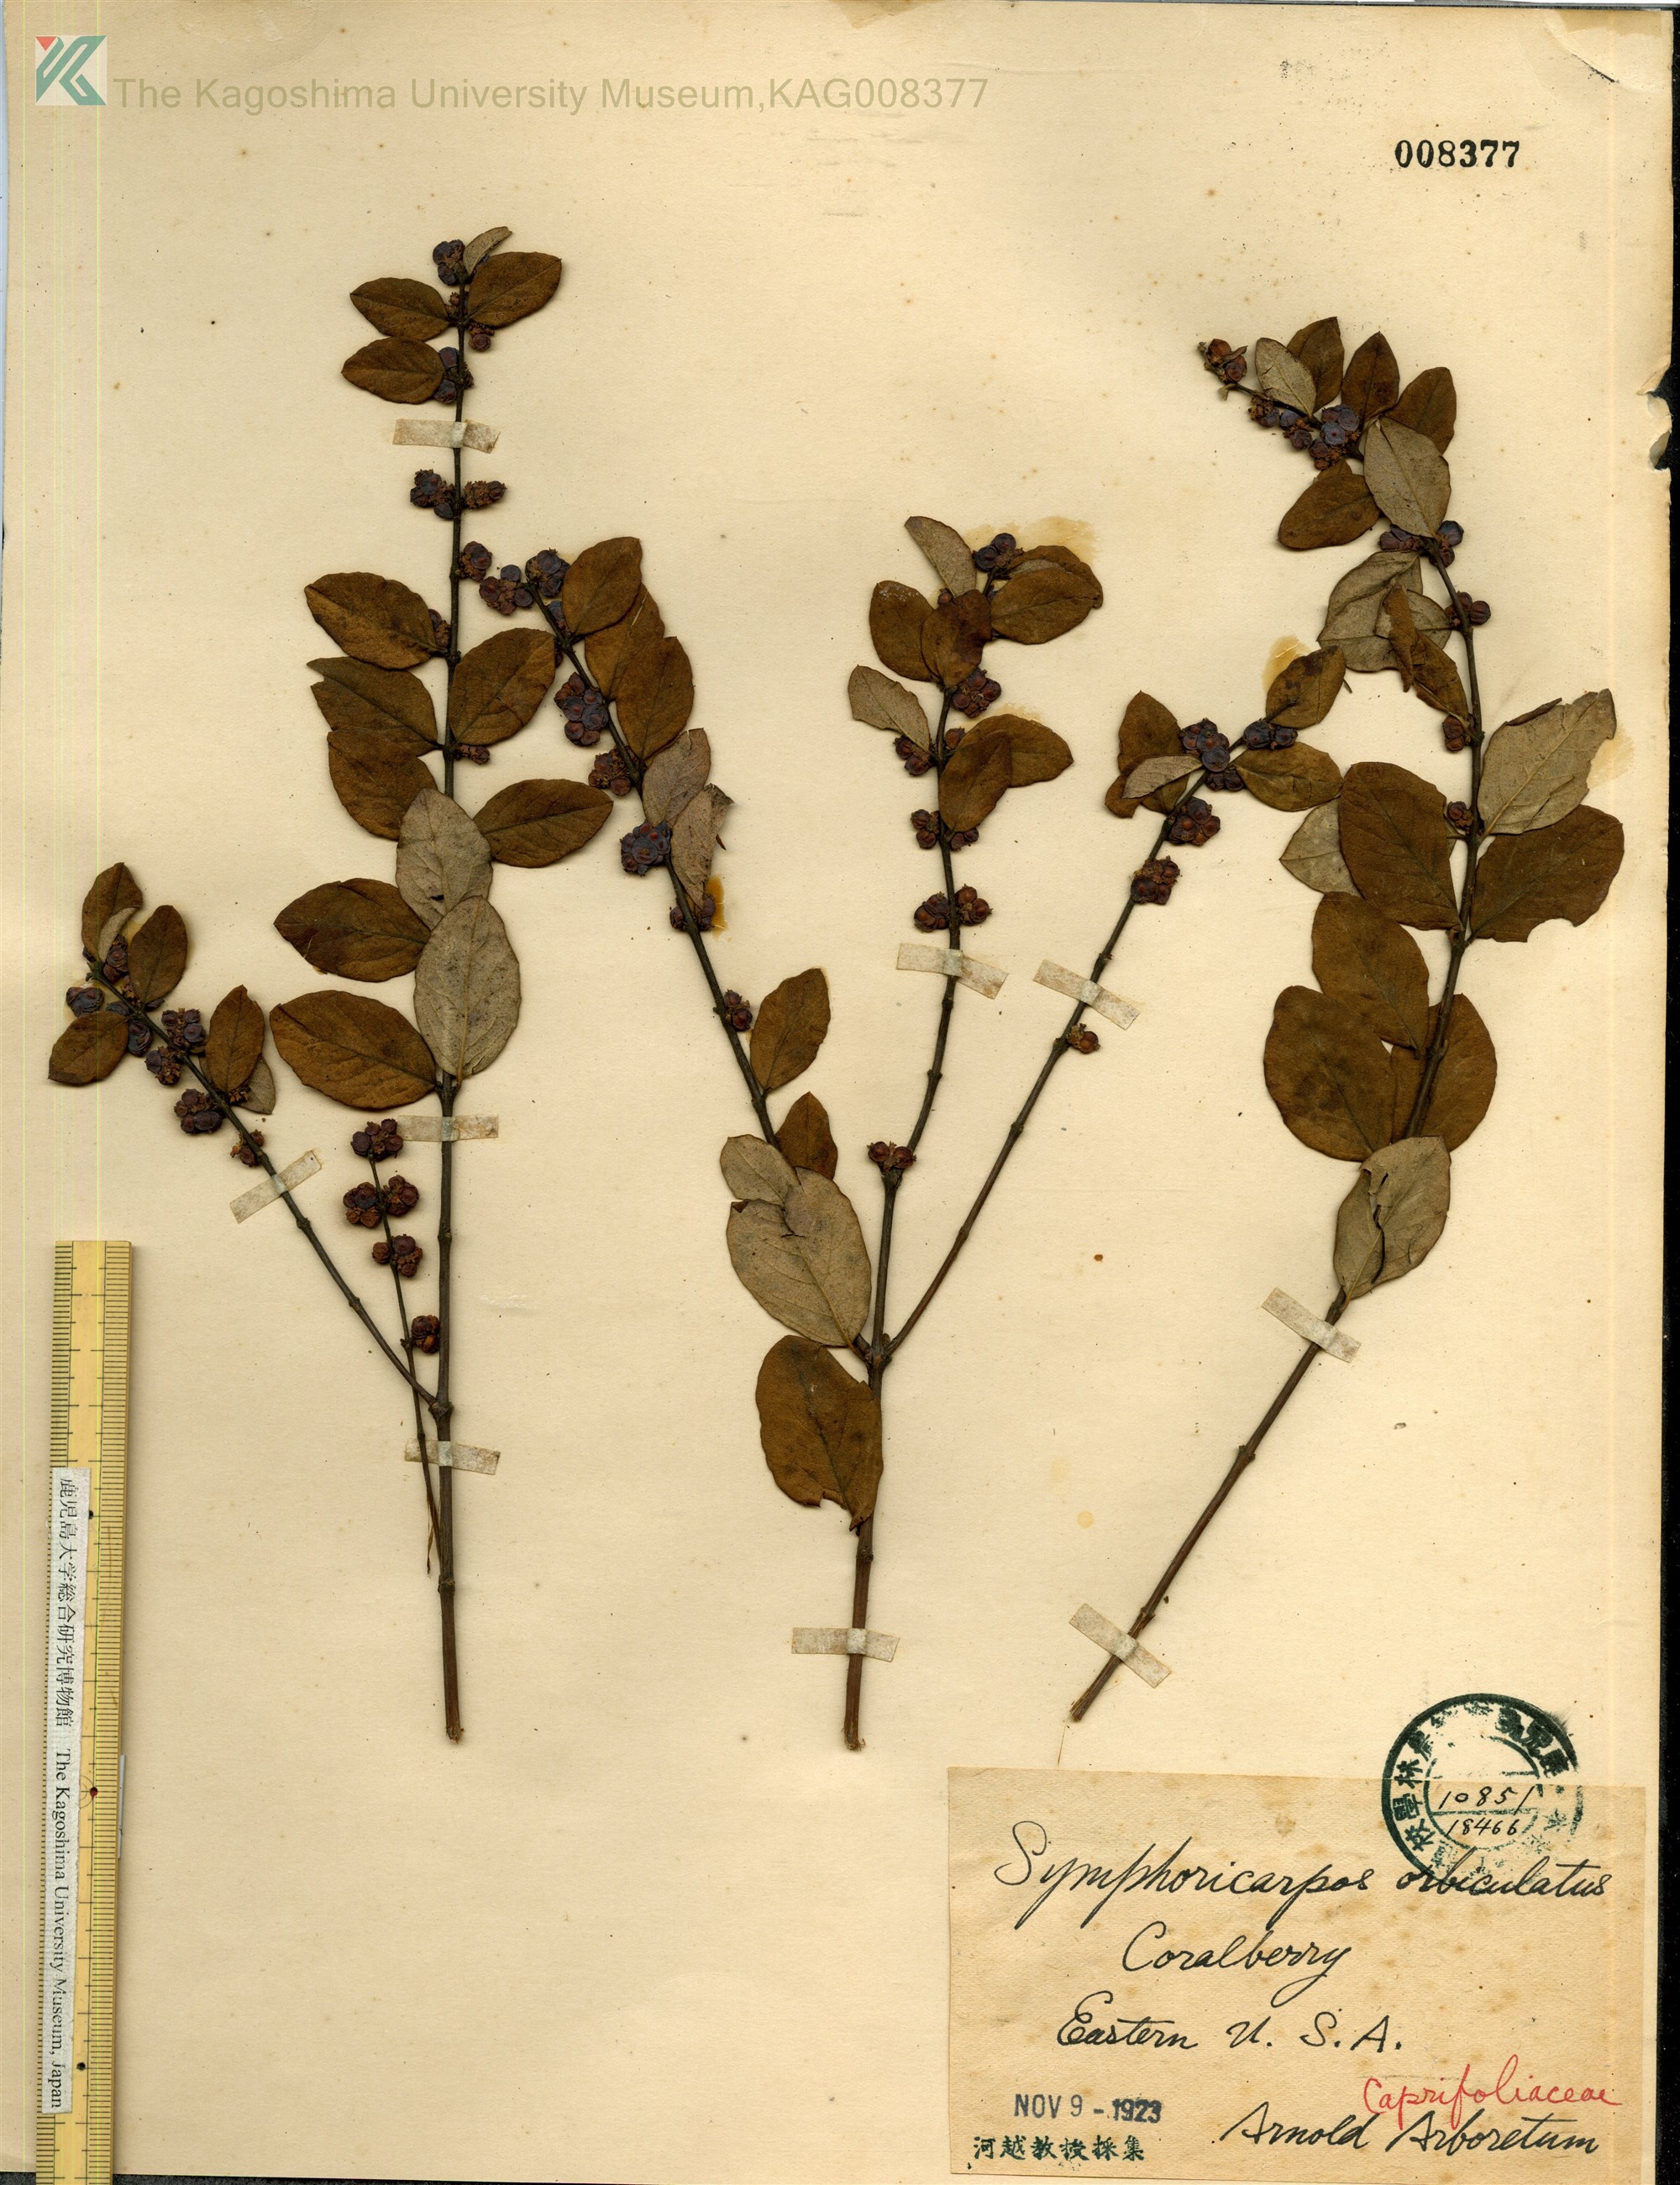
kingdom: Plantae
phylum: Tracheophyta
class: Magnoliopsida
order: Dipsacales
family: Caprifoliaceae
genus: Symphoricarpos
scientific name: Symphoricarpos chenaultii
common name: Hybrid coralberry
